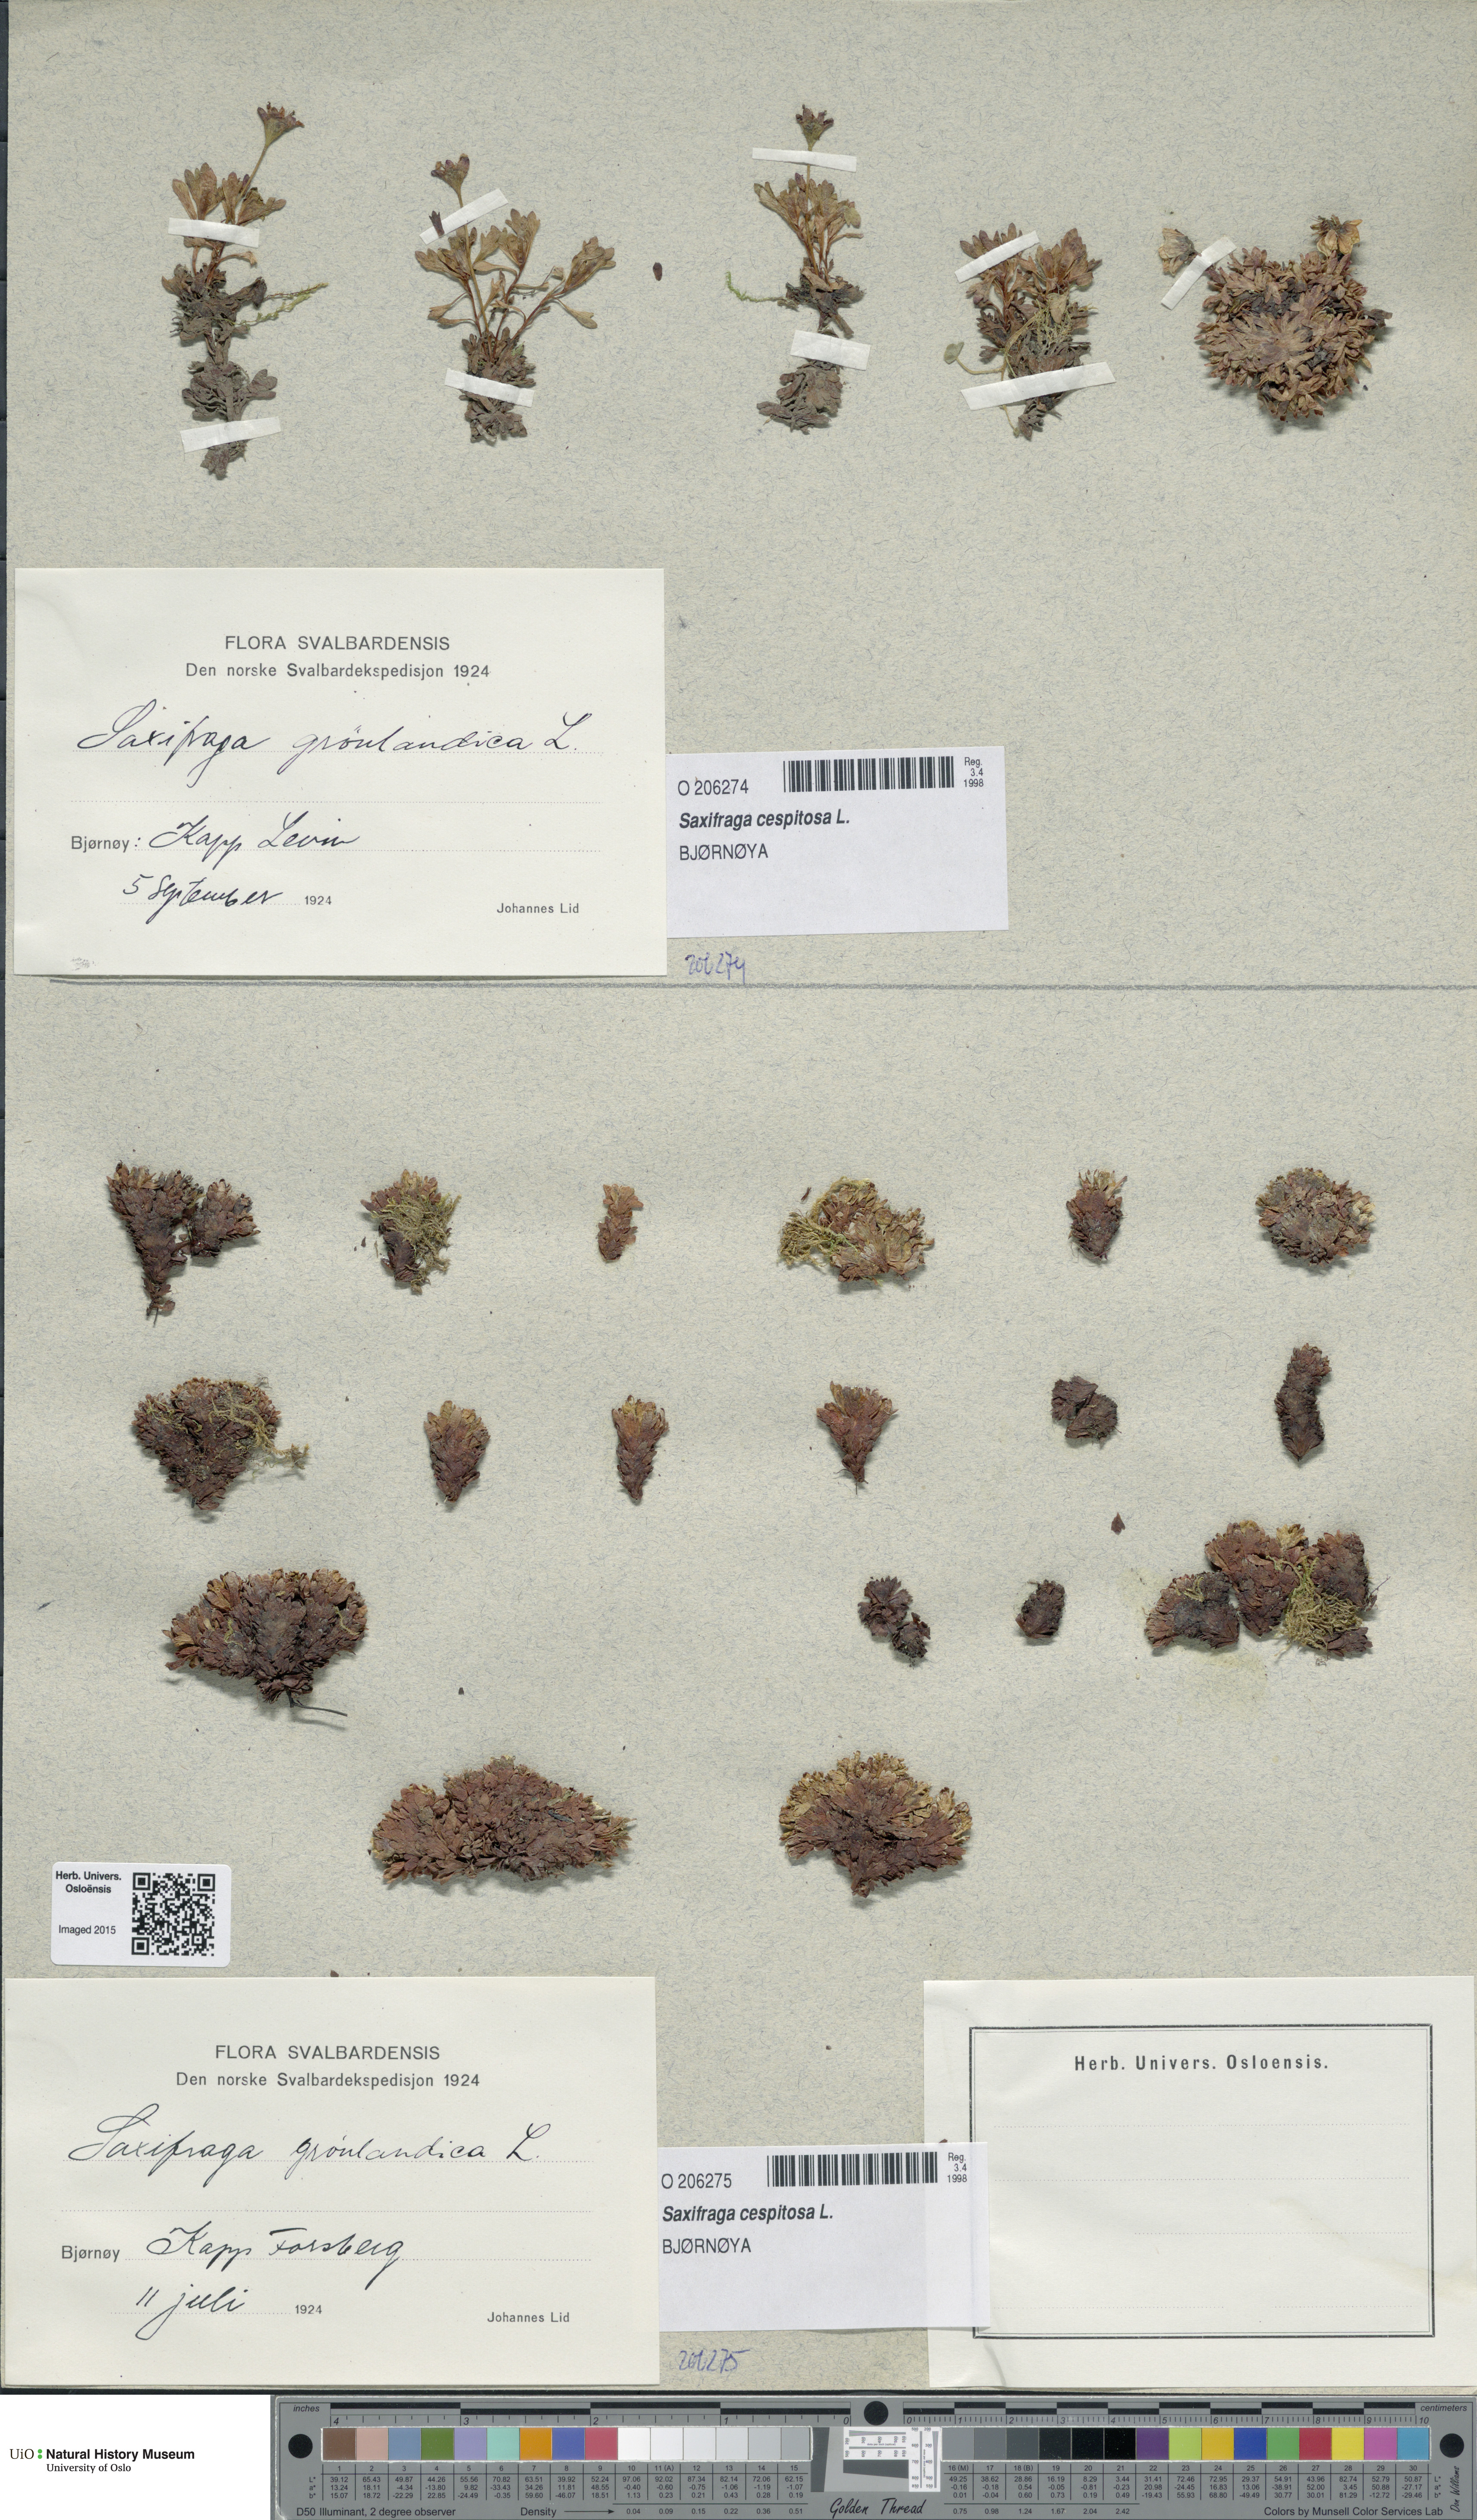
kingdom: Plantae
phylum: Tracheophyta
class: Magnoliopsida
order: Saxifragales
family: Saxifragaceae
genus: Saxifraga
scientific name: Saxifraga cespitosa
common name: Tufted saxifrage
